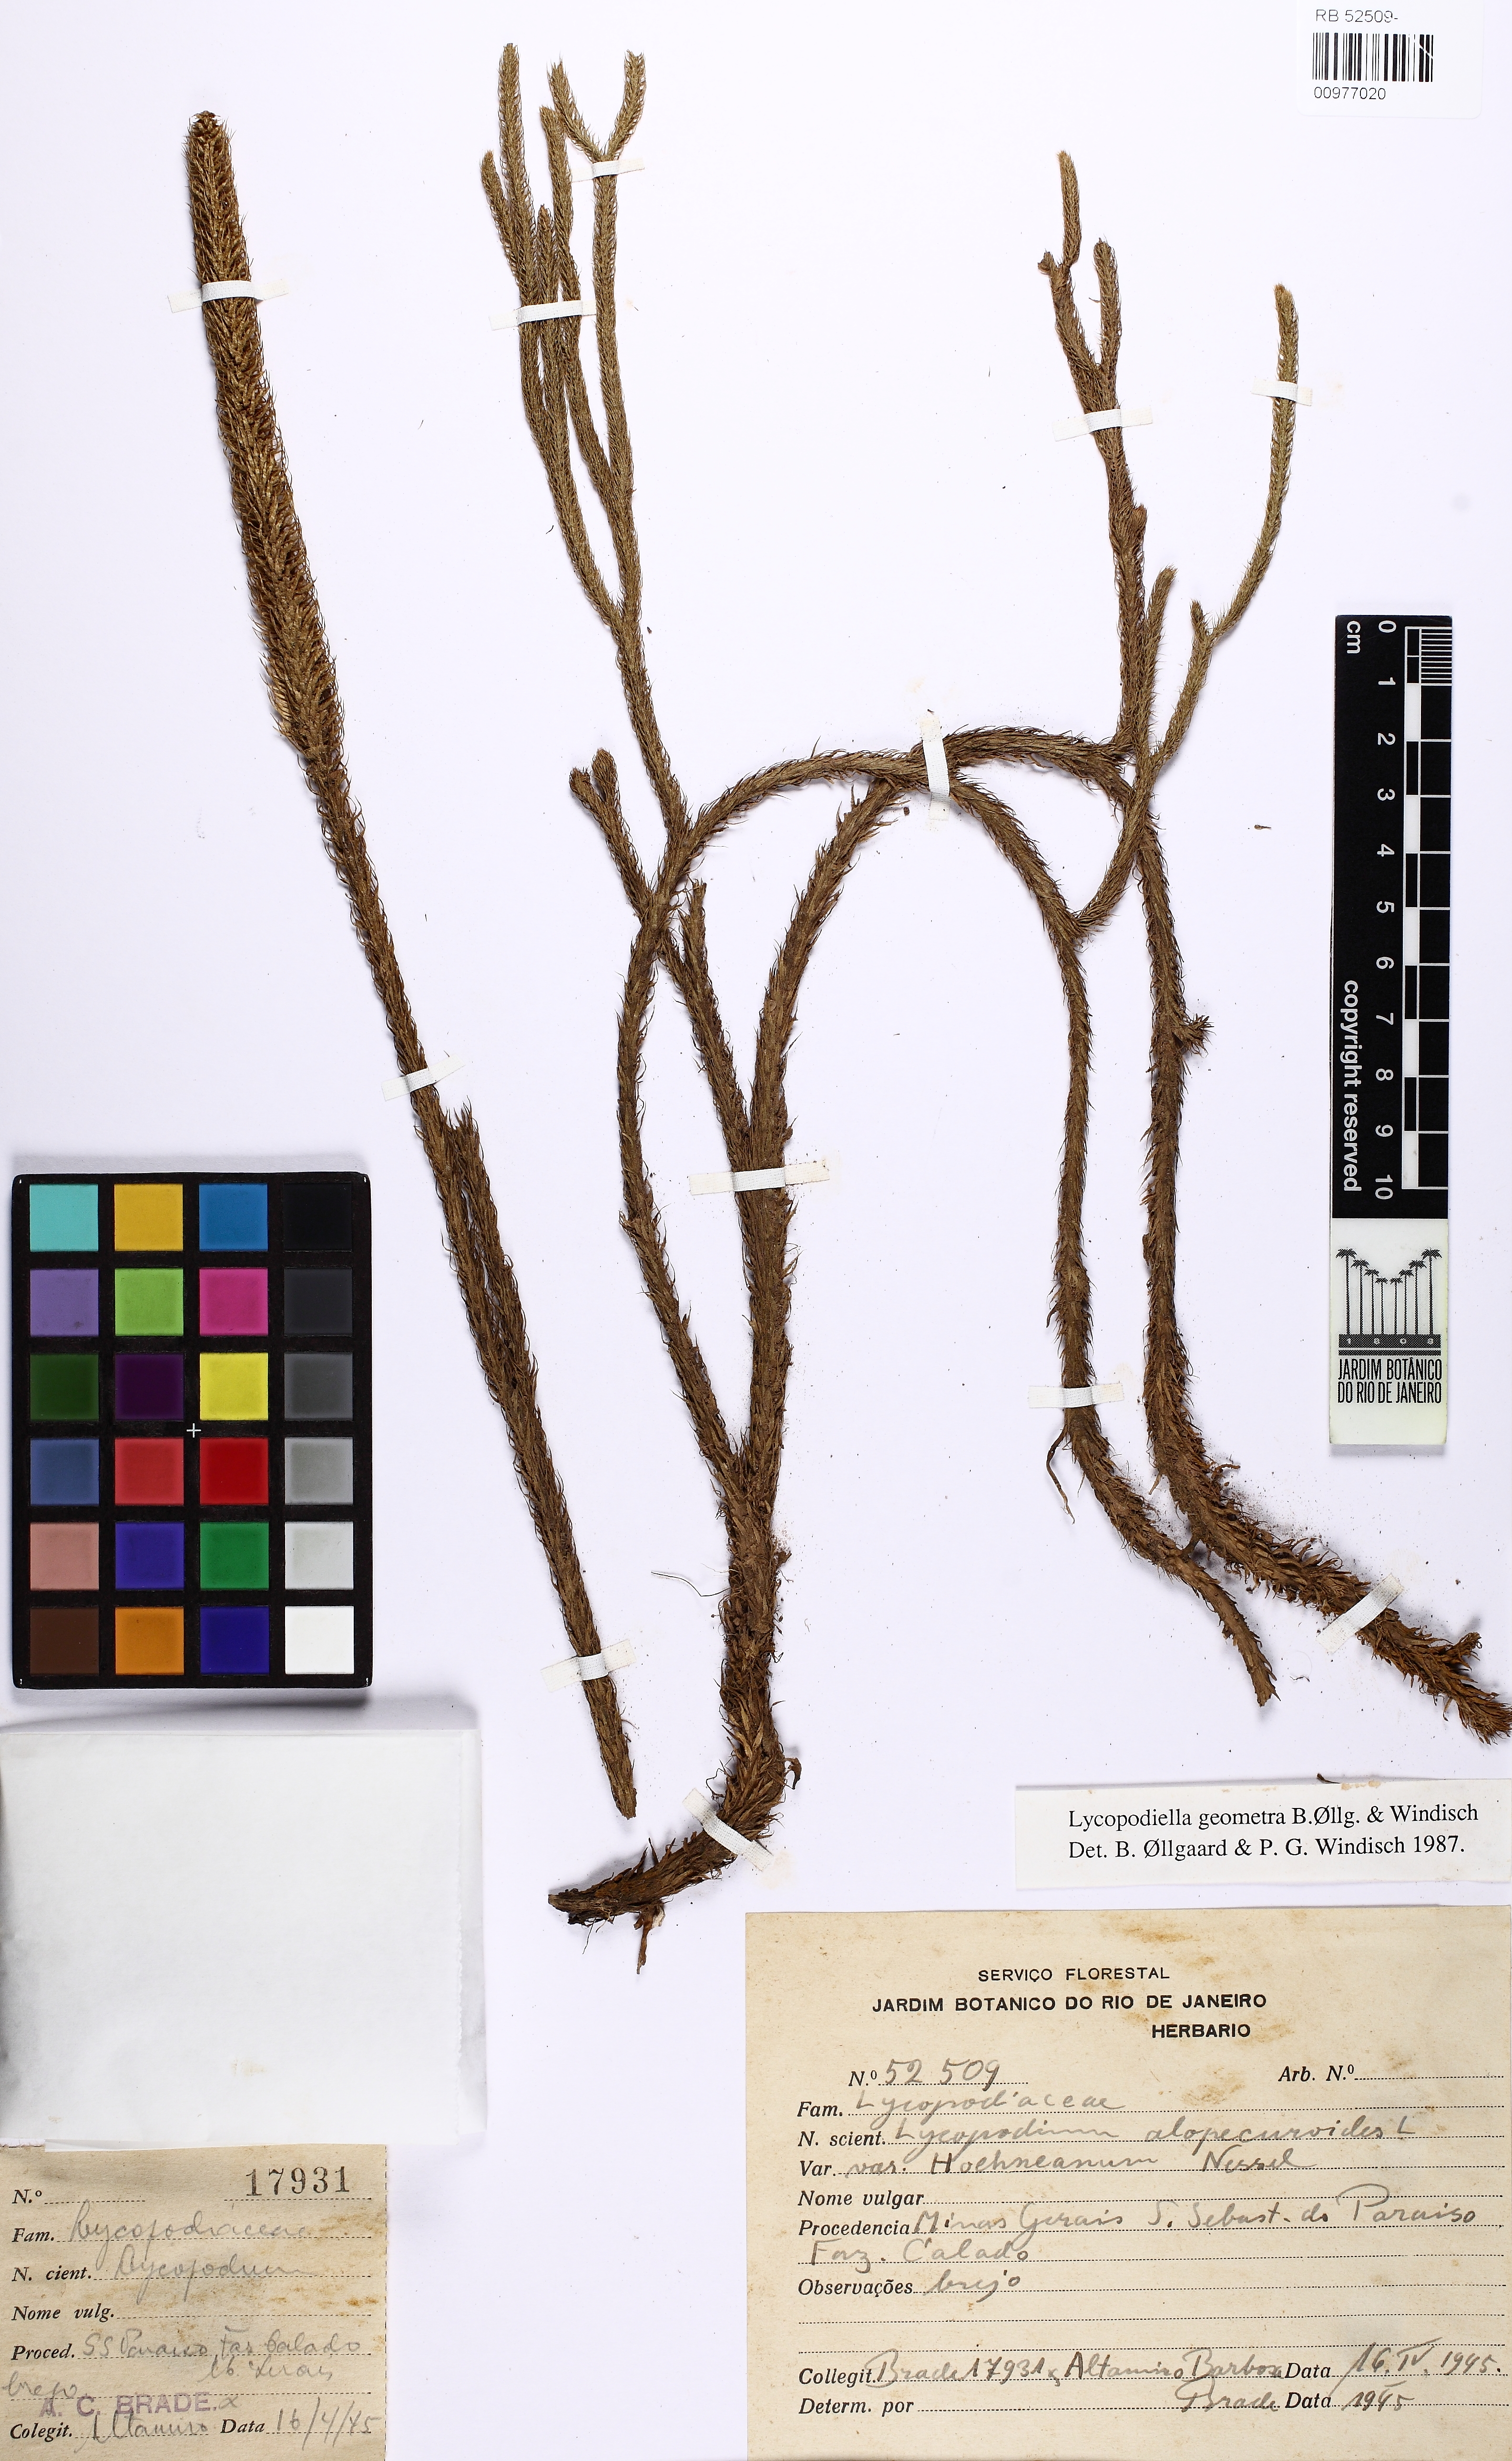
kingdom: Plantae
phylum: Tracheophyta
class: Lycopodiopsida
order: Lycopodiales
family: Lycopodiaceae
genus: Lycopodiella
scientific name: Lycopodiella geometra
